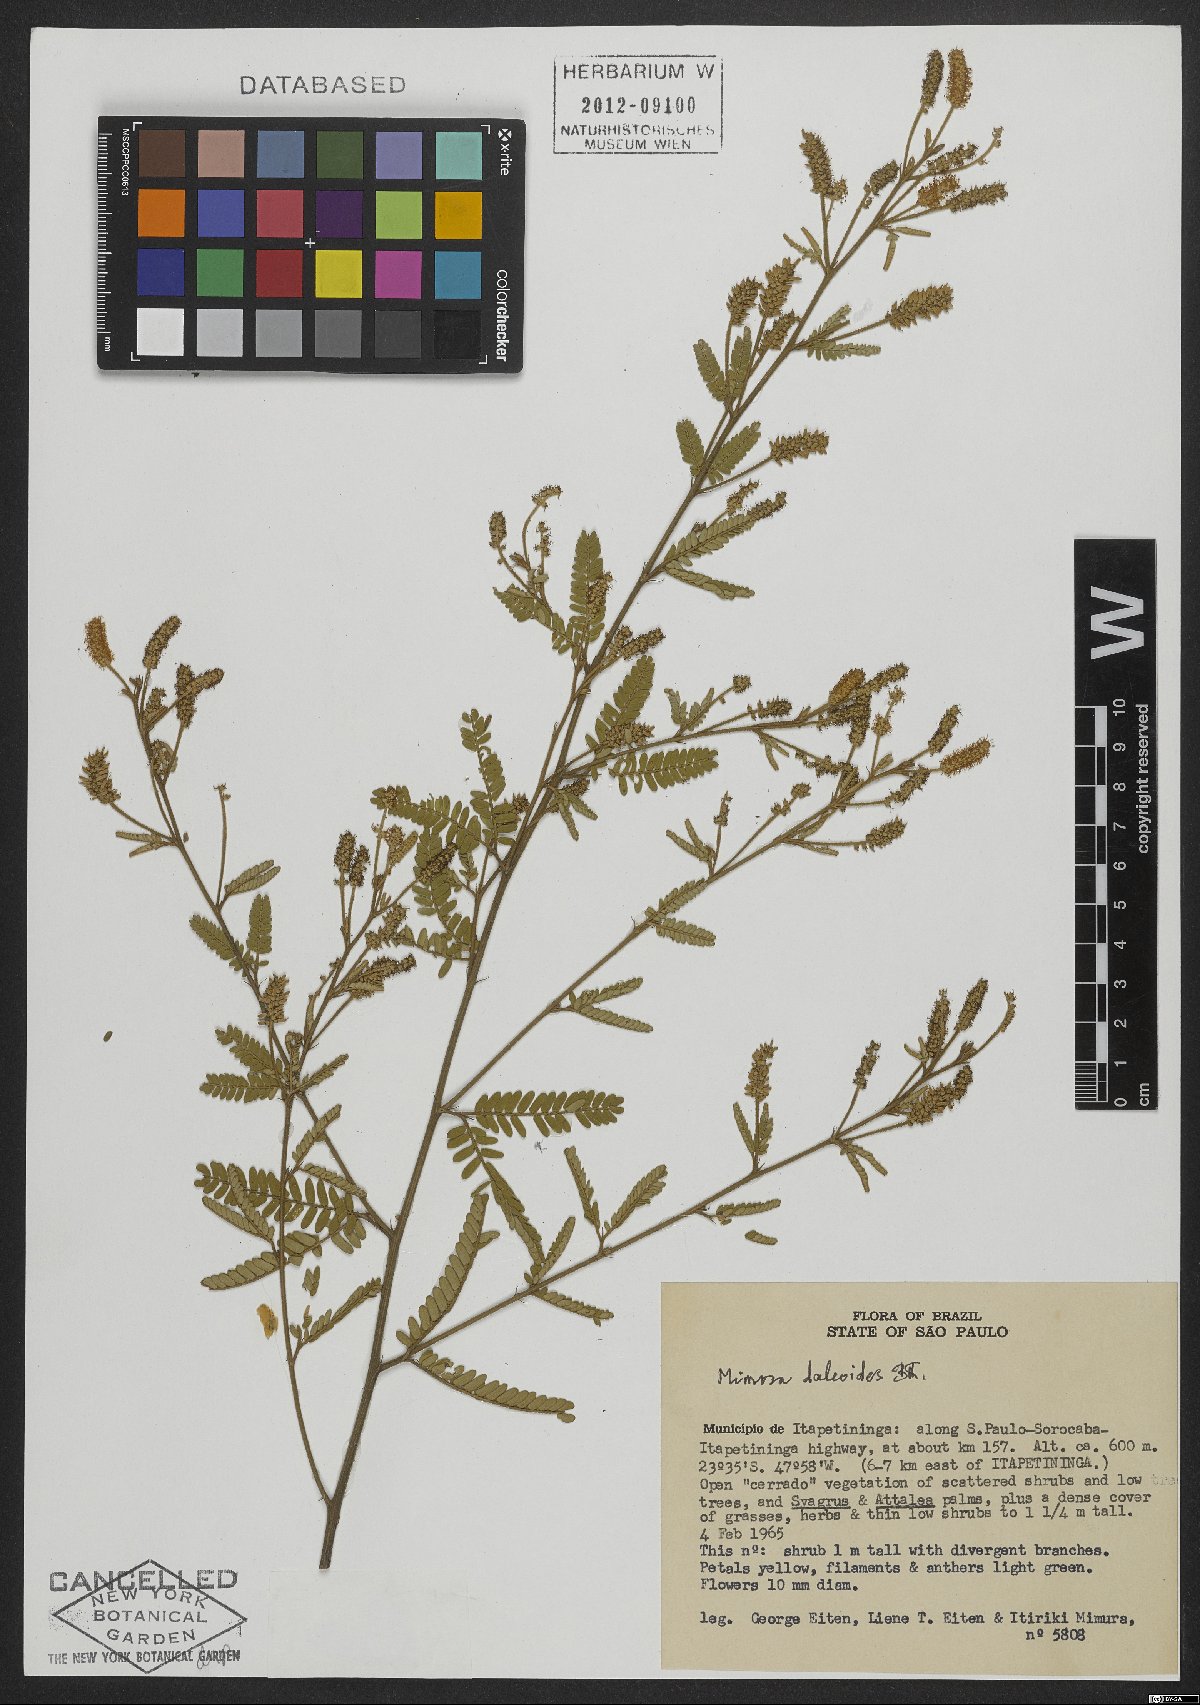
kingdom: Plantae
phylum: Tracheophyta
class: Magnoliopsida
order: Fabales
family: Fabaceae
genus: Mimosa
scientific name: Mimosa daleoides
